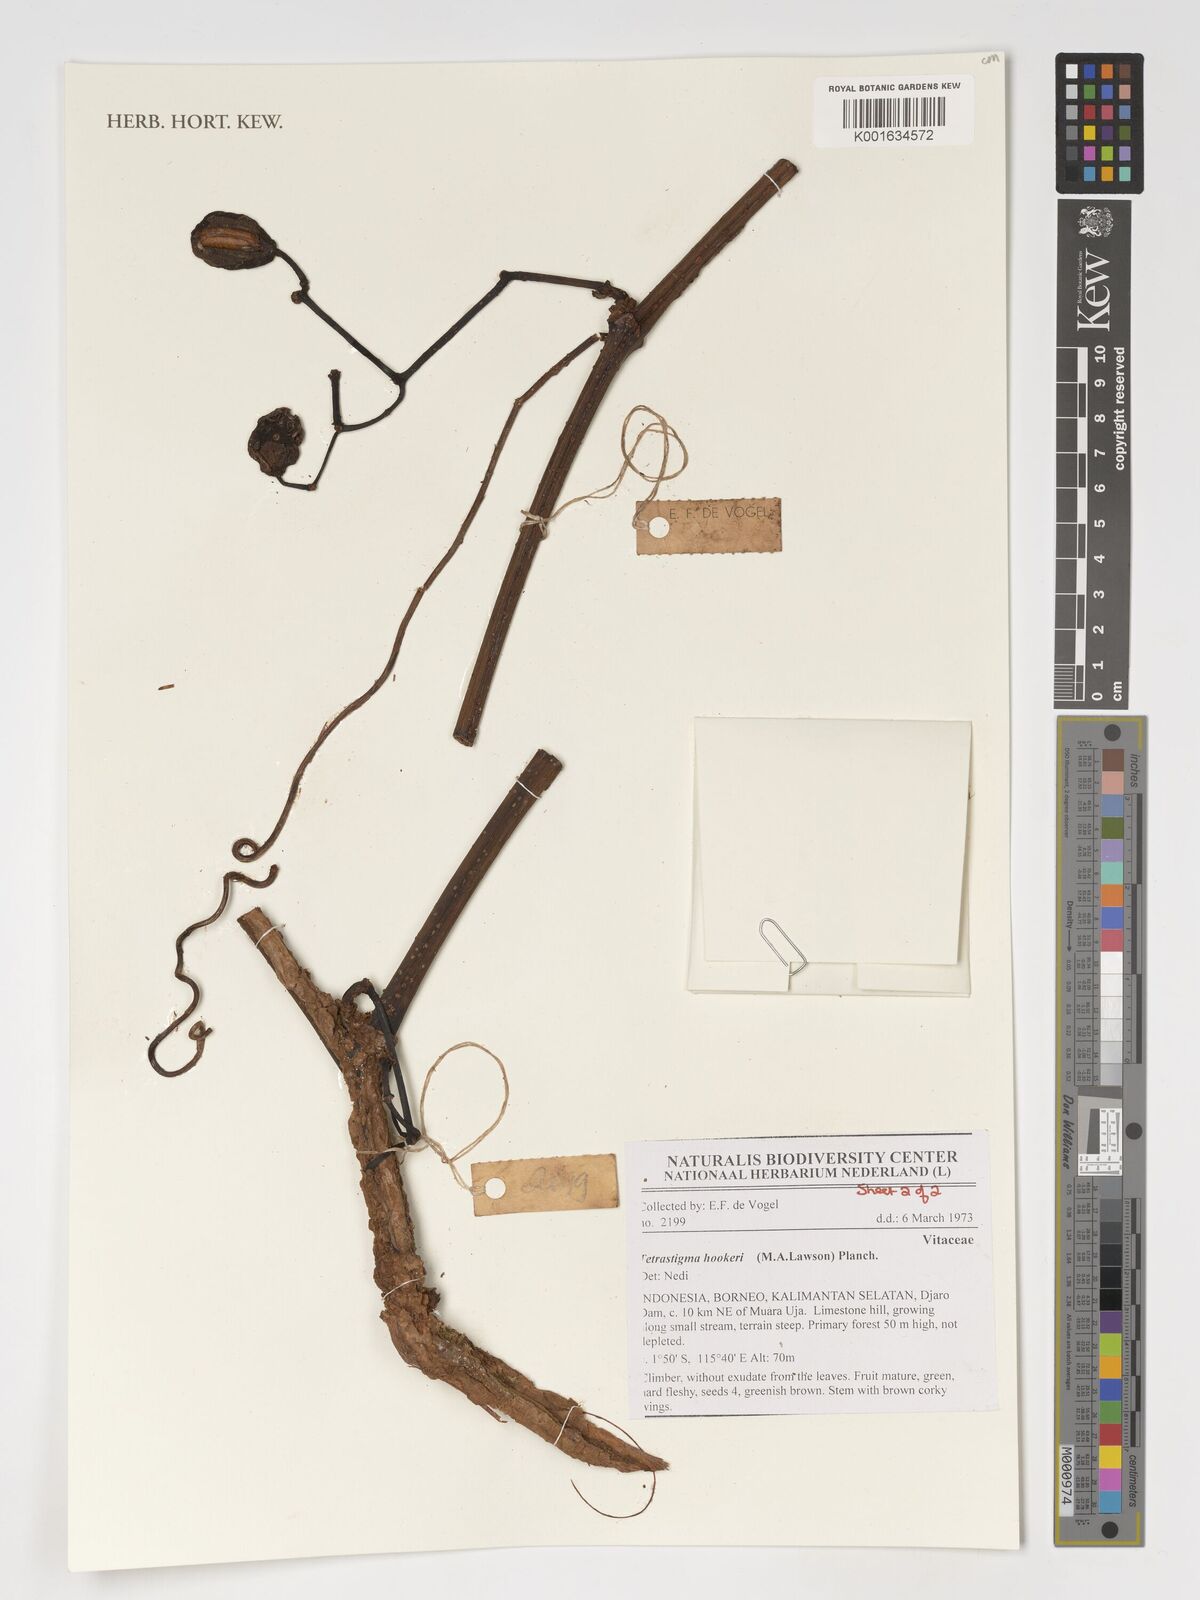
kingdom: Plantae
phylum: Tracheophyta
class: Magnoliopsida
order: Vitales
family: Vitaceae
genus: Tetrastigma
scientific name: Tetrastigma hookeri
